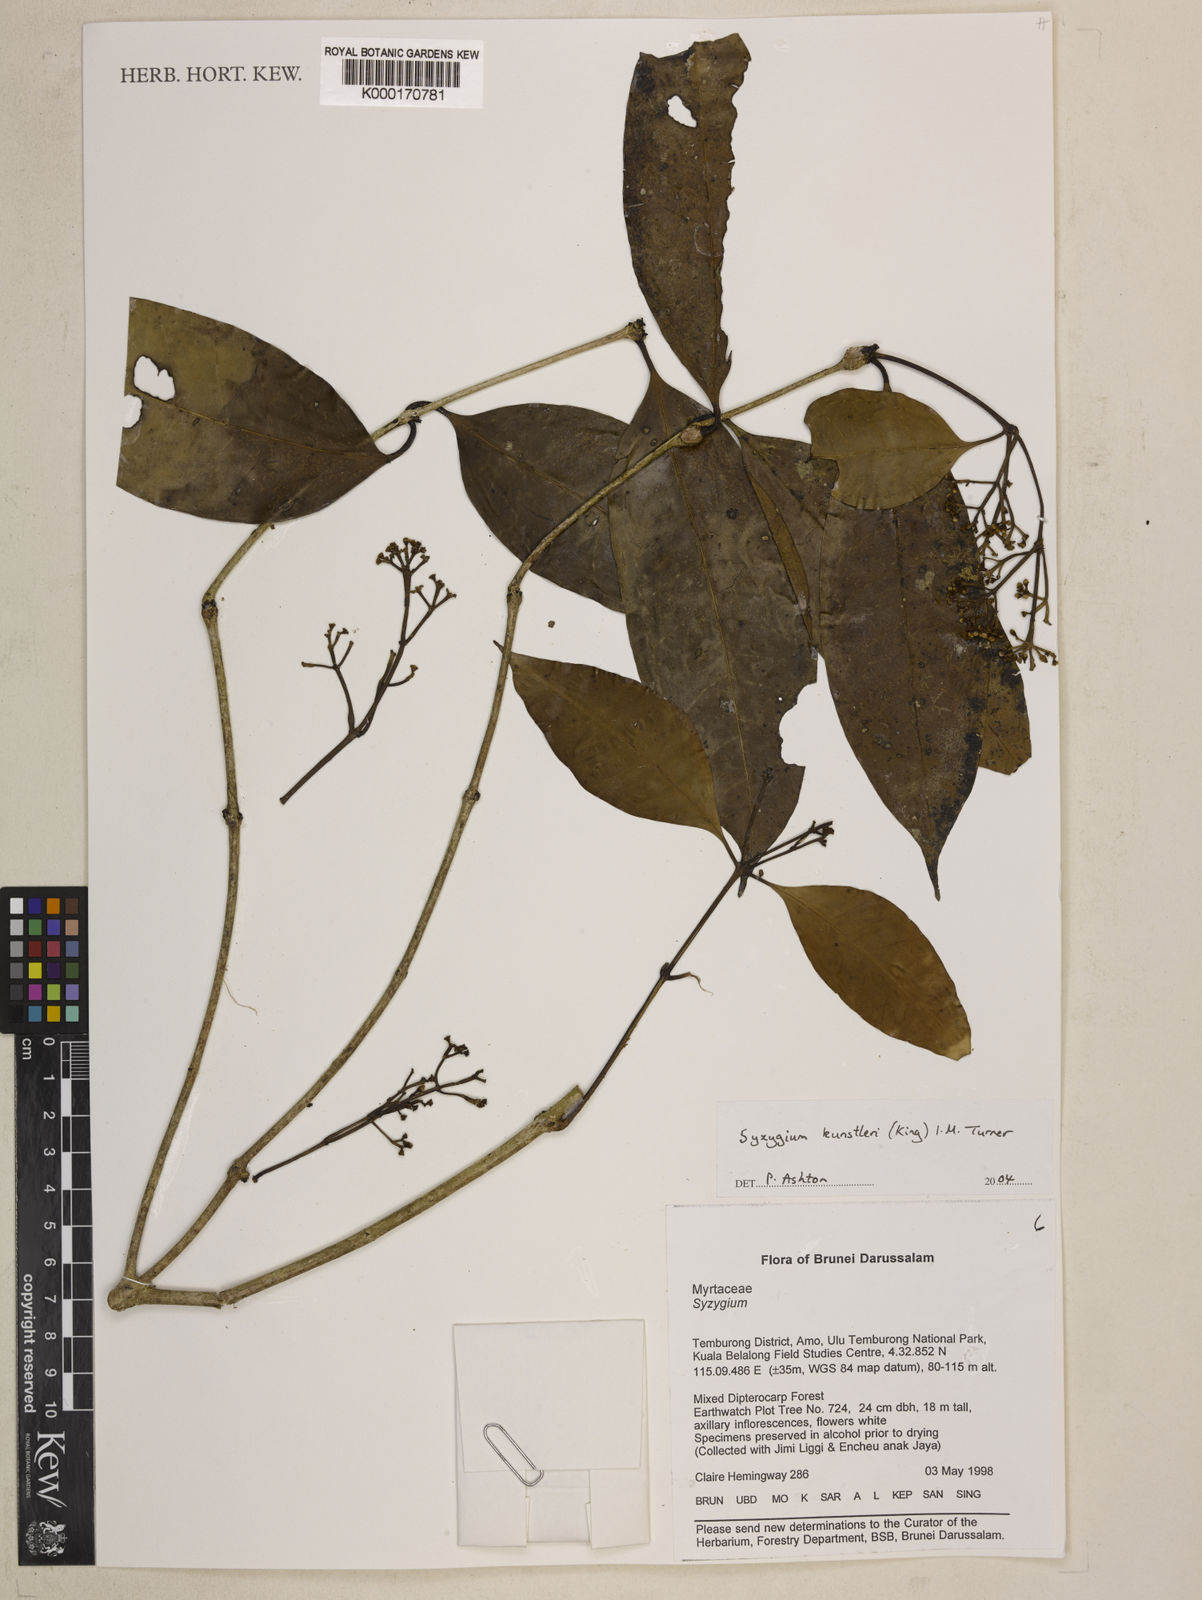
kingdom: Plantae
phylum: Tracheophyta
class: Magnoliopsida
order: Myrtales
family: Myrtaceae
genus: Syzygium
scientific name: Syzygium
